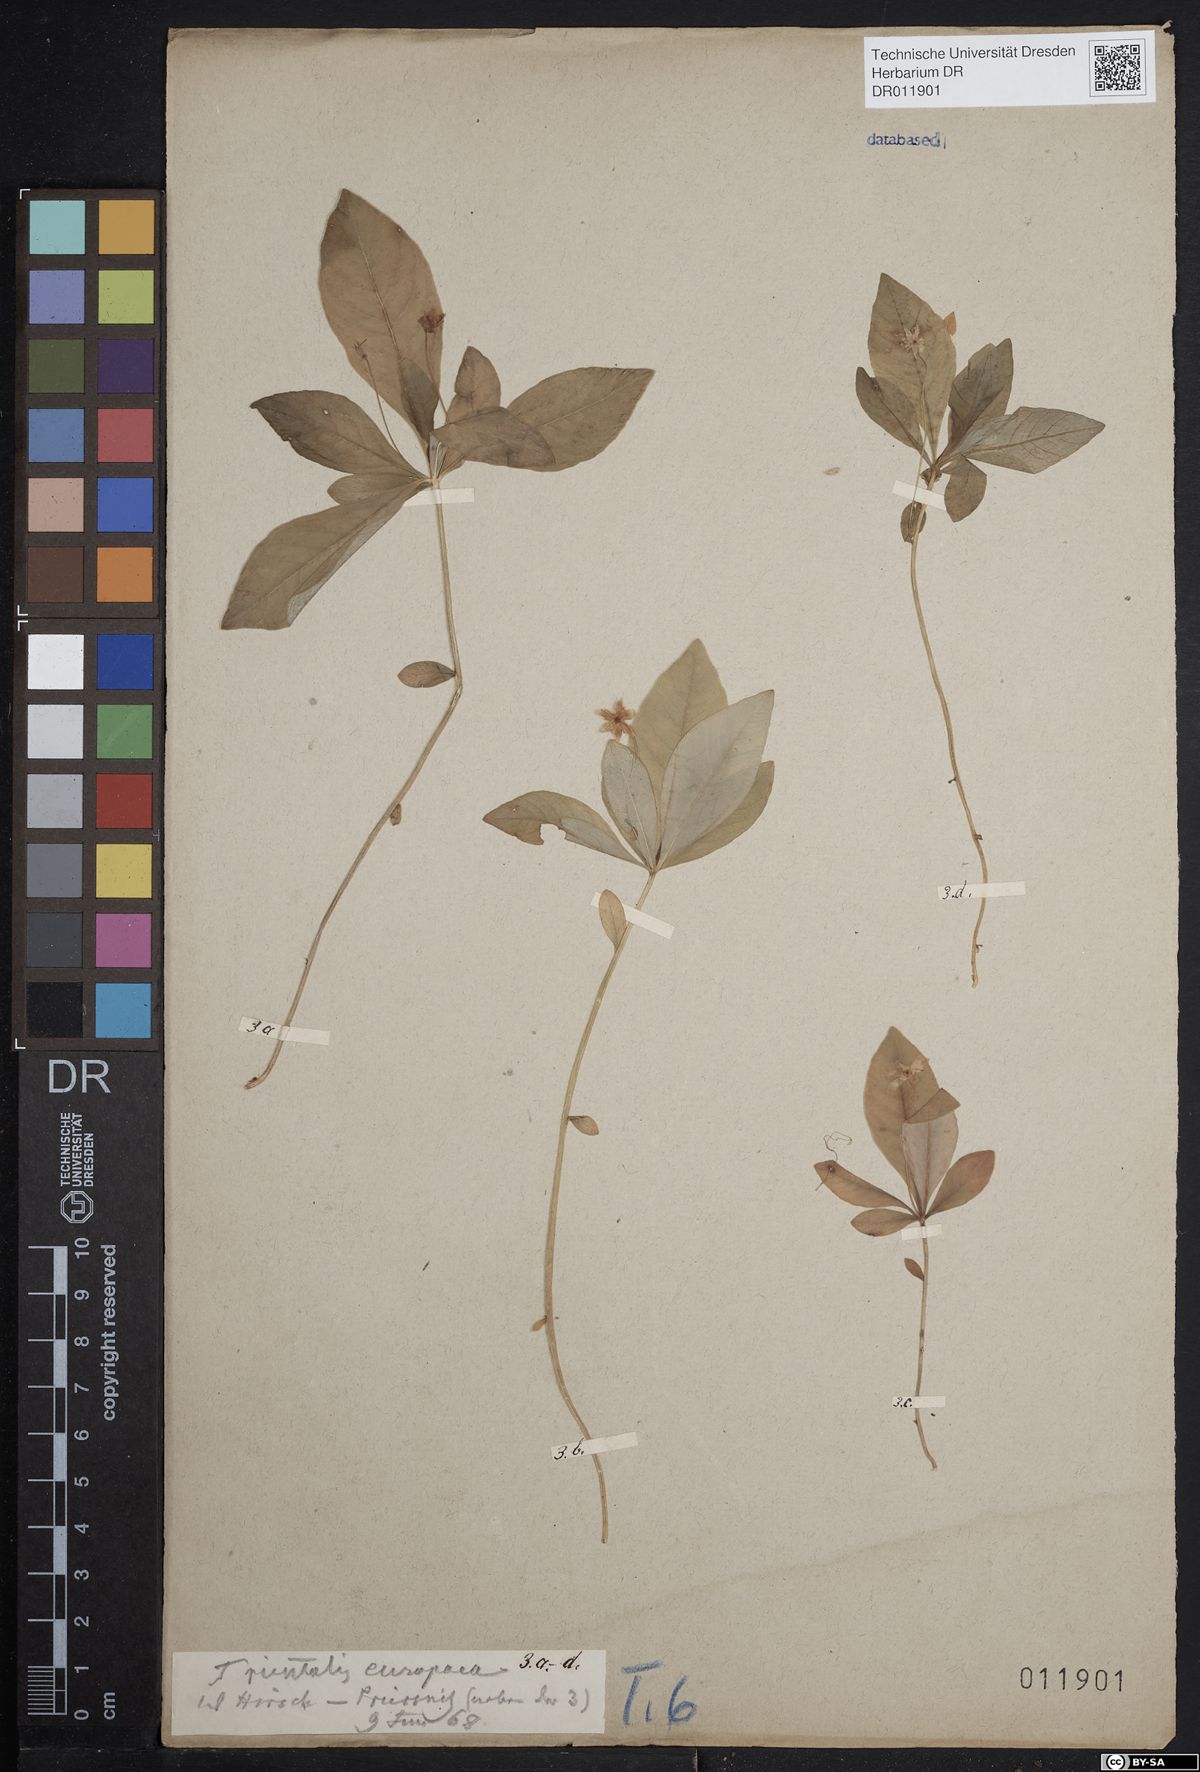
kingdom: Plantae
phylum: Tracheophyta
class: Magnoliopsida
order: Ericales
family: Primulaceae
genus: Lysimachia
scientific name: Lysimachia europaea
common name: Arctic starflower
